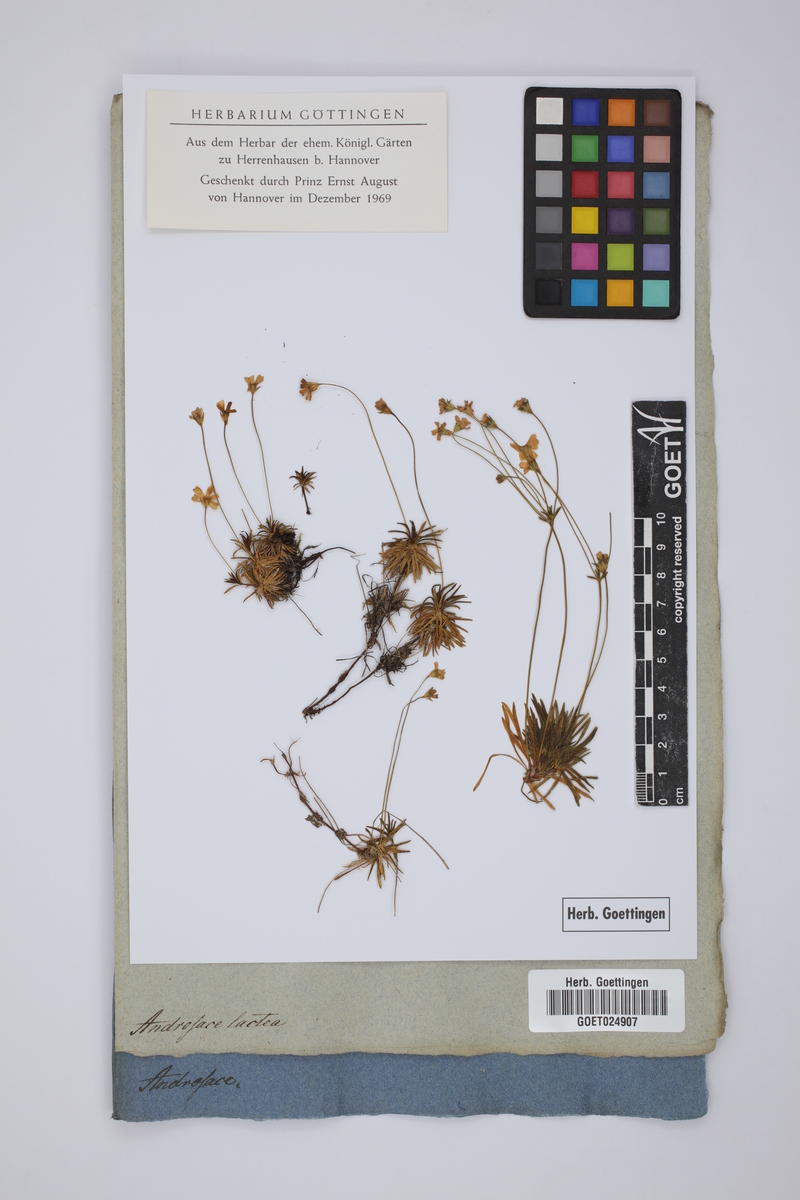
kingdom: Plantae
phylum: Tracheophyta
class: Magnoliopsida
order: Ericales
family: Primulaceae
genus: Androsace
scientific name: Androsace lactea
